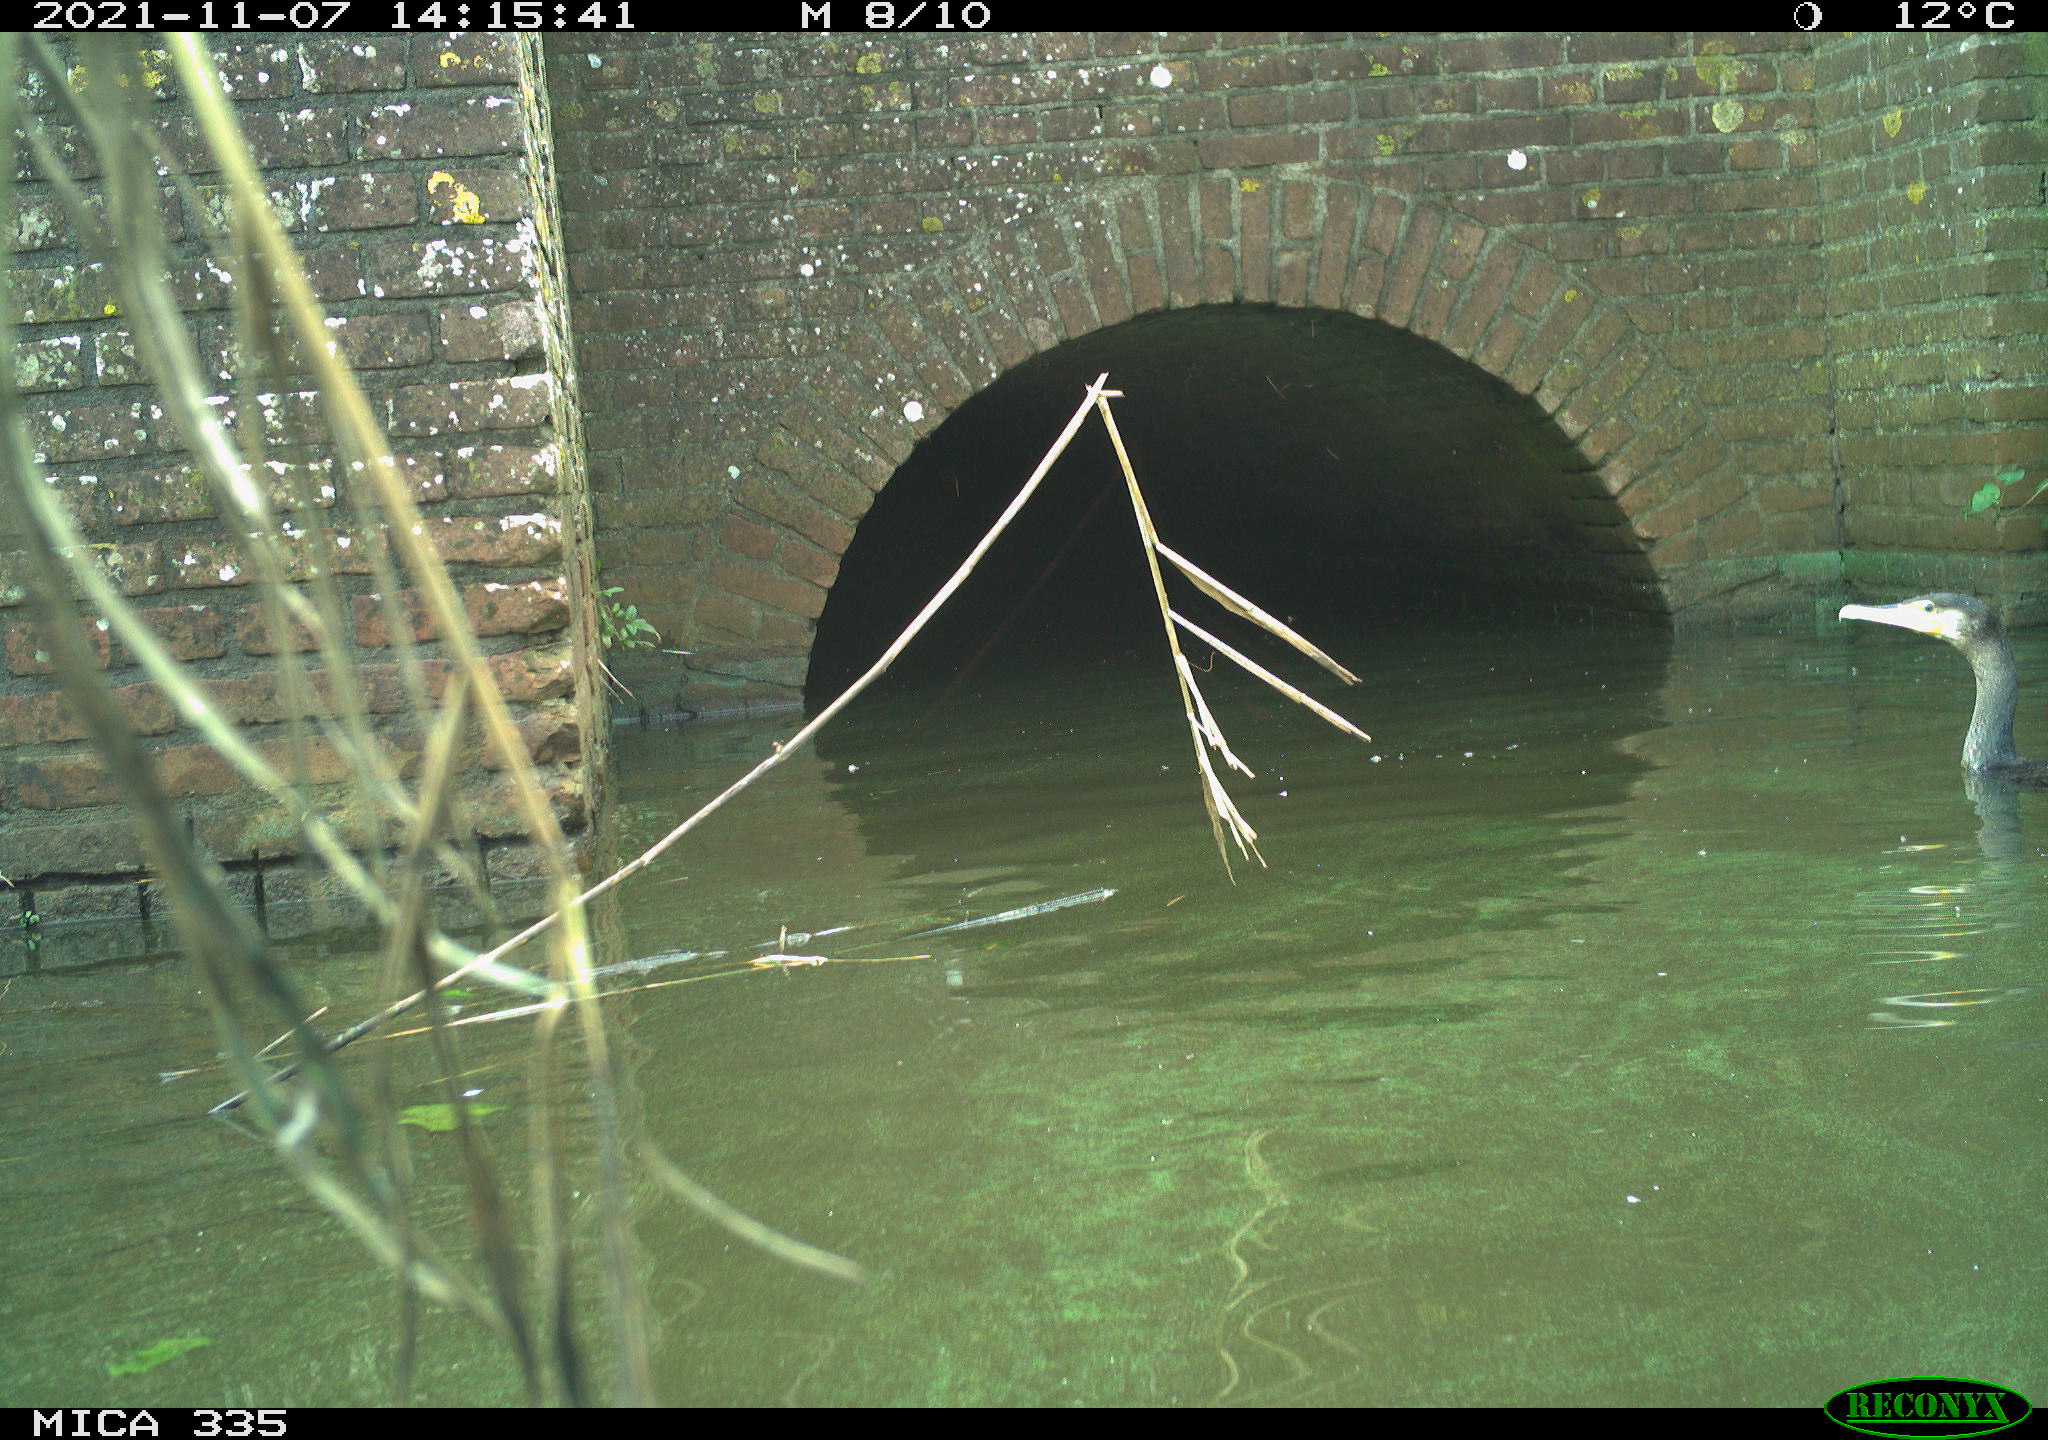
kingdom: Animalia
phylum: Chordata
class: Aves
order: Suliformes
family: Phalacrocoracidae
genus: Phalacrocorax
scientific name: Phalacrocorax carbo
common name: Great cormorant
